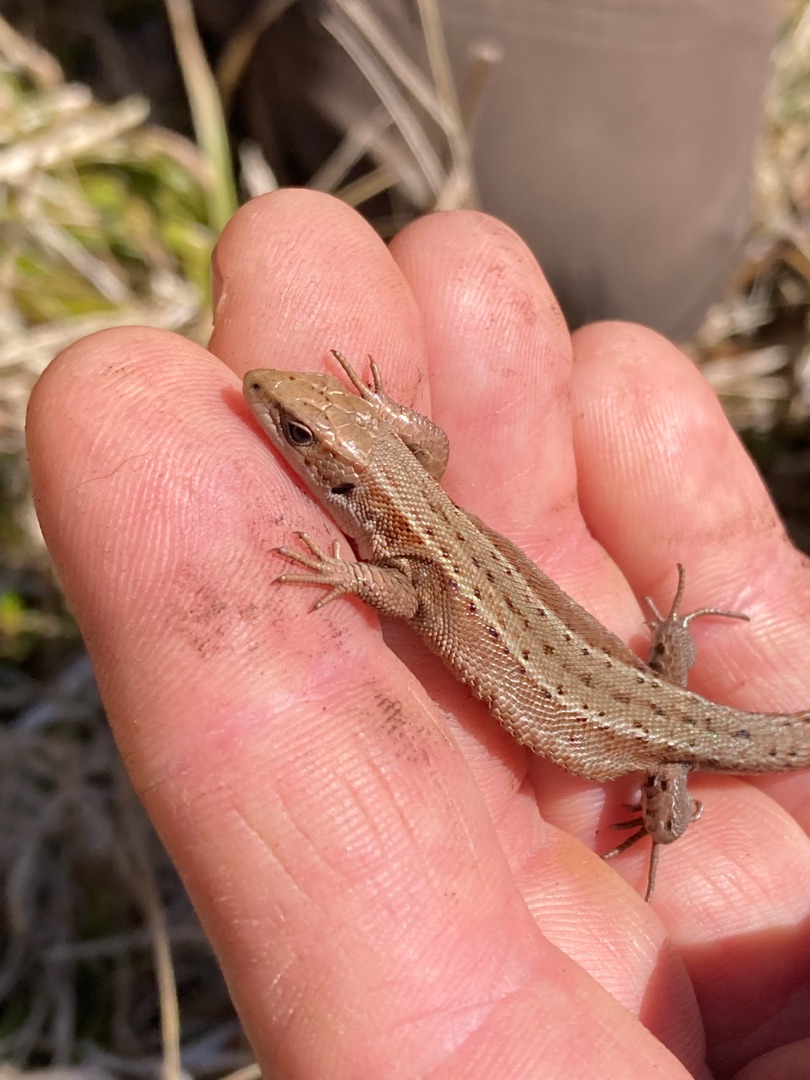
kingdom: Animalia
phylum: Chordata
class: Squamata
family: Lacertidae
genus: Zootoca
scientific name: Zootoca vivipara
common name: Skovfirben
